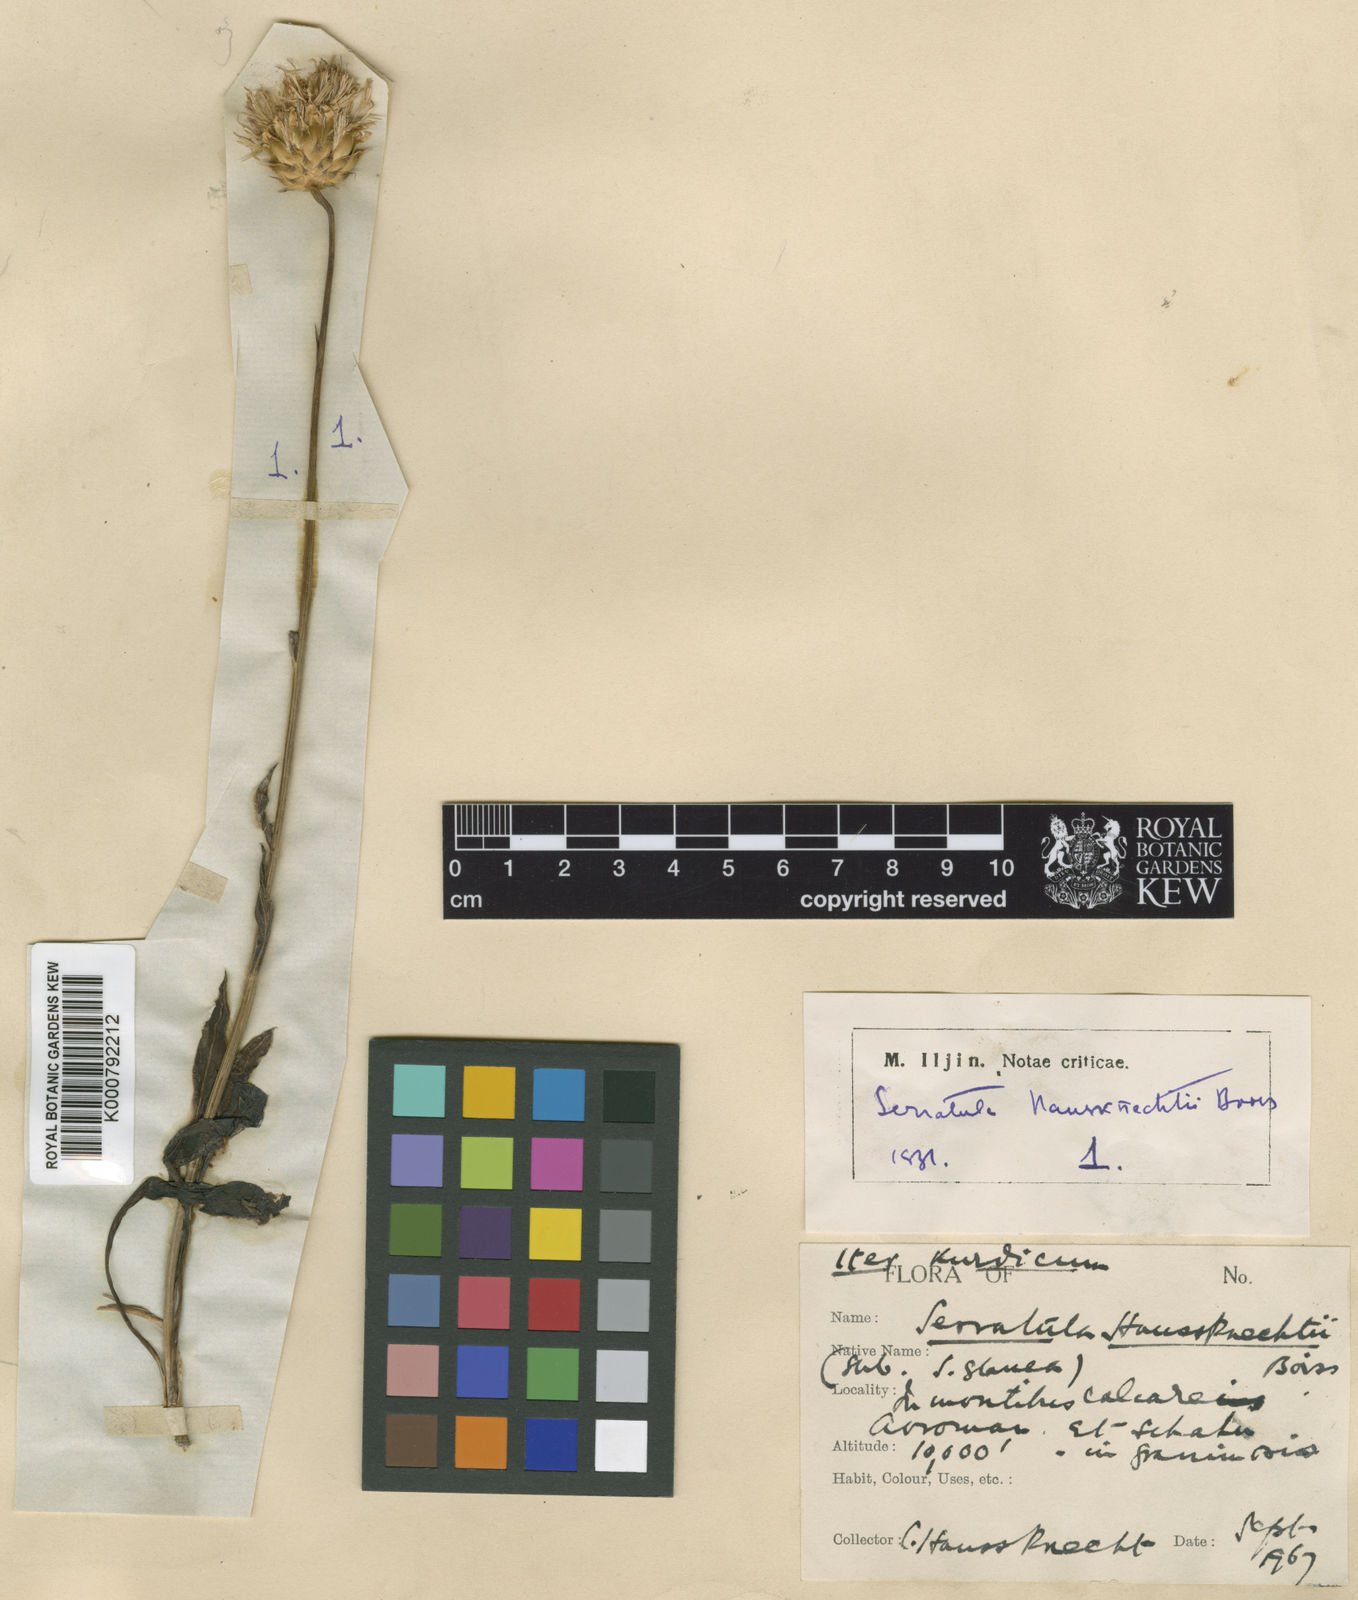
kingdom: Plantae
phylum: Tracheophyta
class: Magnoliopsida
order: Asterales
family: Asteraceae
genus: Klasea
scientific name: Klasea haussknechtii
